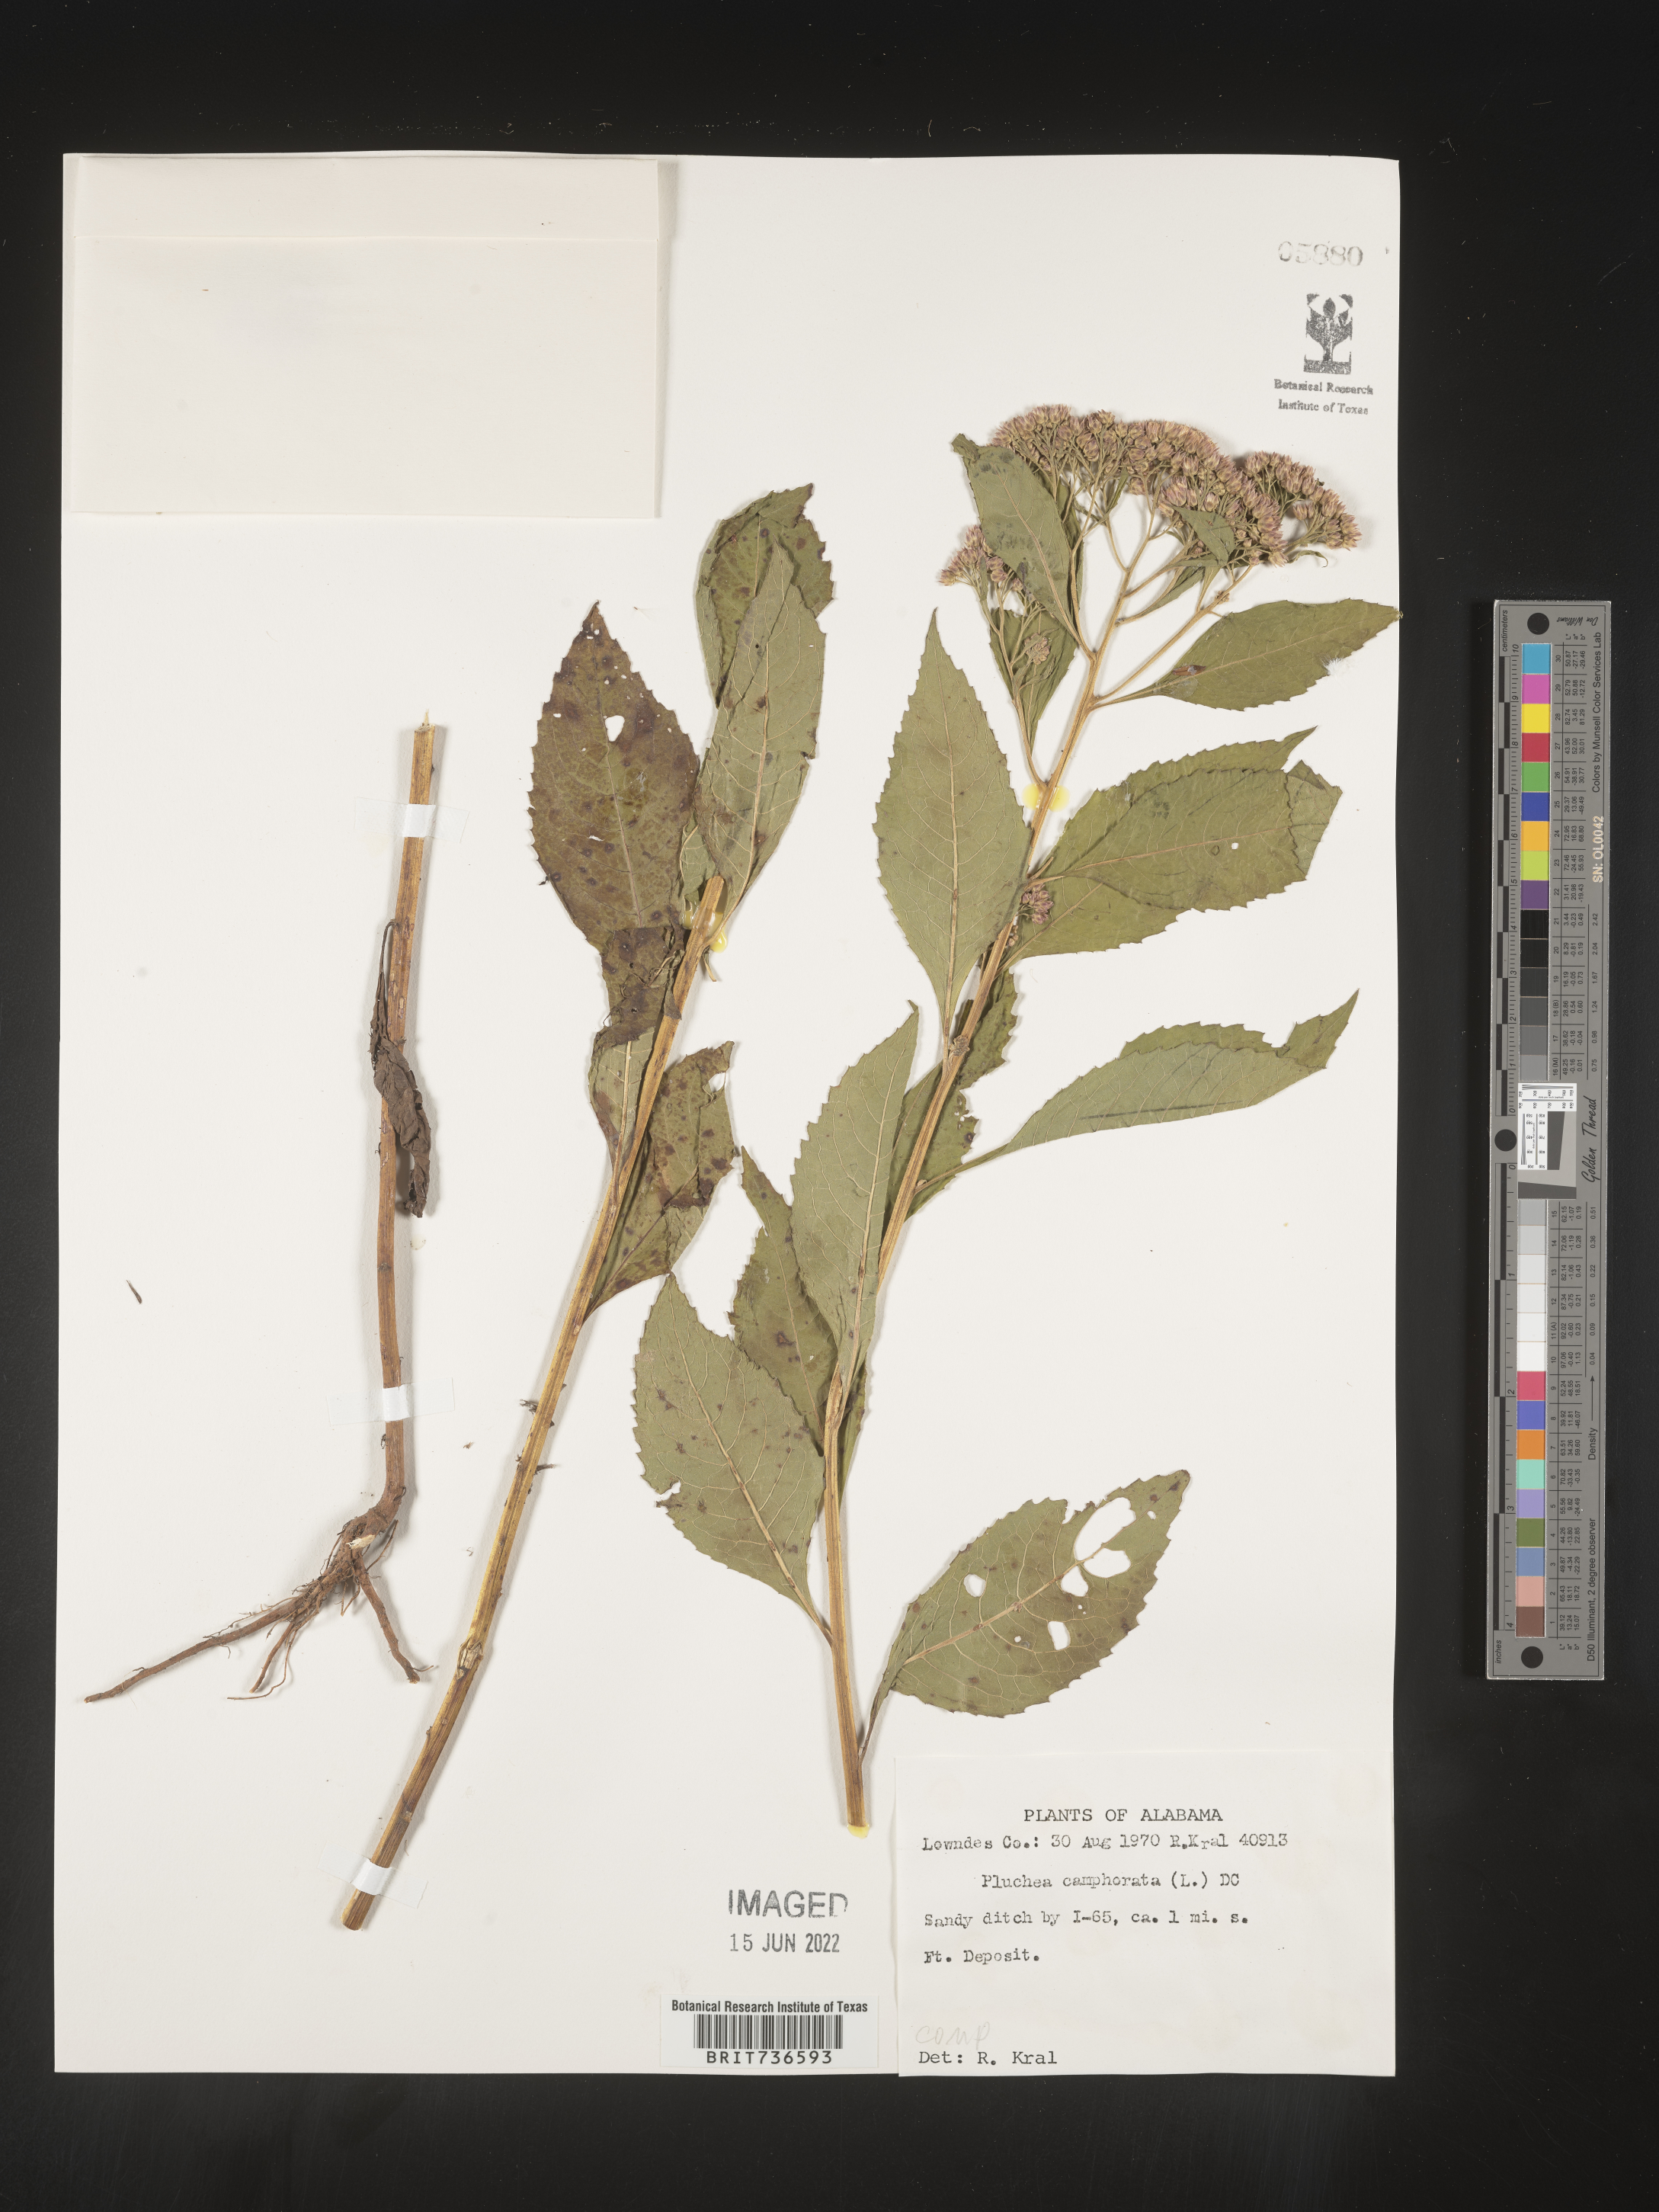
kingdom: Plantae
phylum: Tracheophyta
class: Magnoliopsida
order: Asterales
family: Asteraceae
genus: Pluchea
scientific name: Pluchea camphorata
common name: Camphor pluchea
